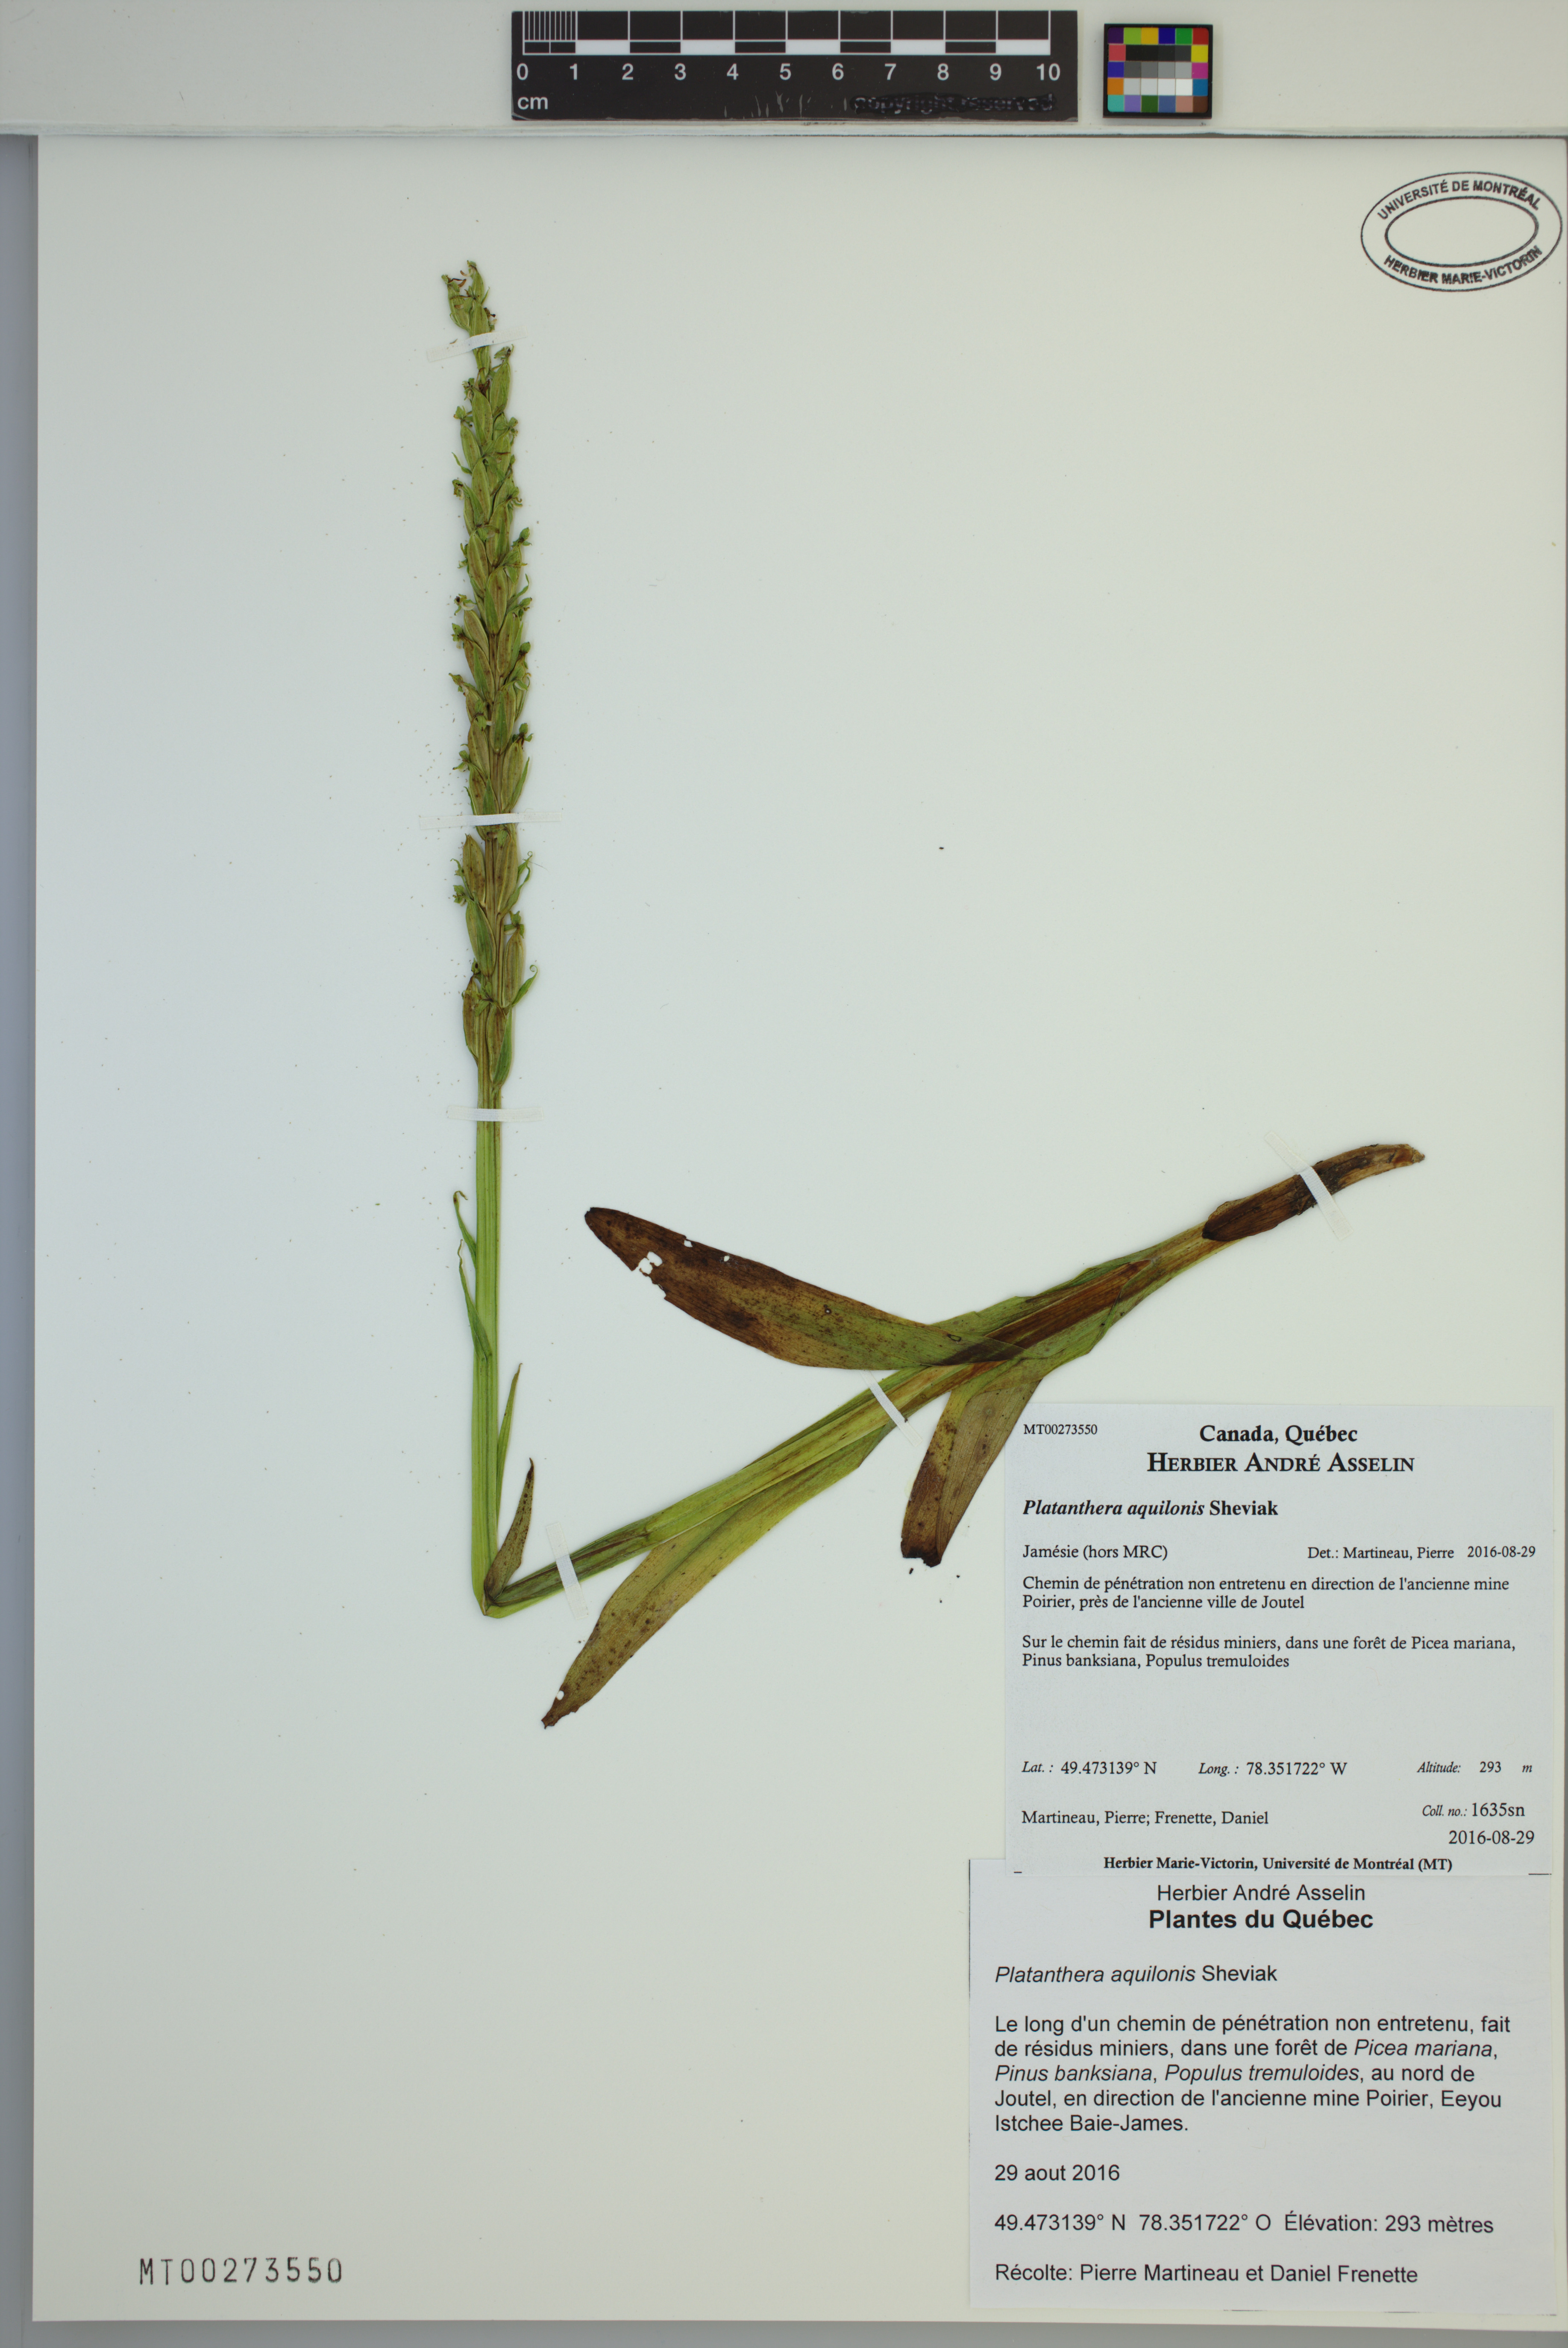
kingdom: Plantae
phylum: Tracheophyta
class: Liliopsida
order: Asparagales
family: Orchidaceae
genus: Platanthera
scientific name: Platanthera aquilonis
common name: Northern green orchid
